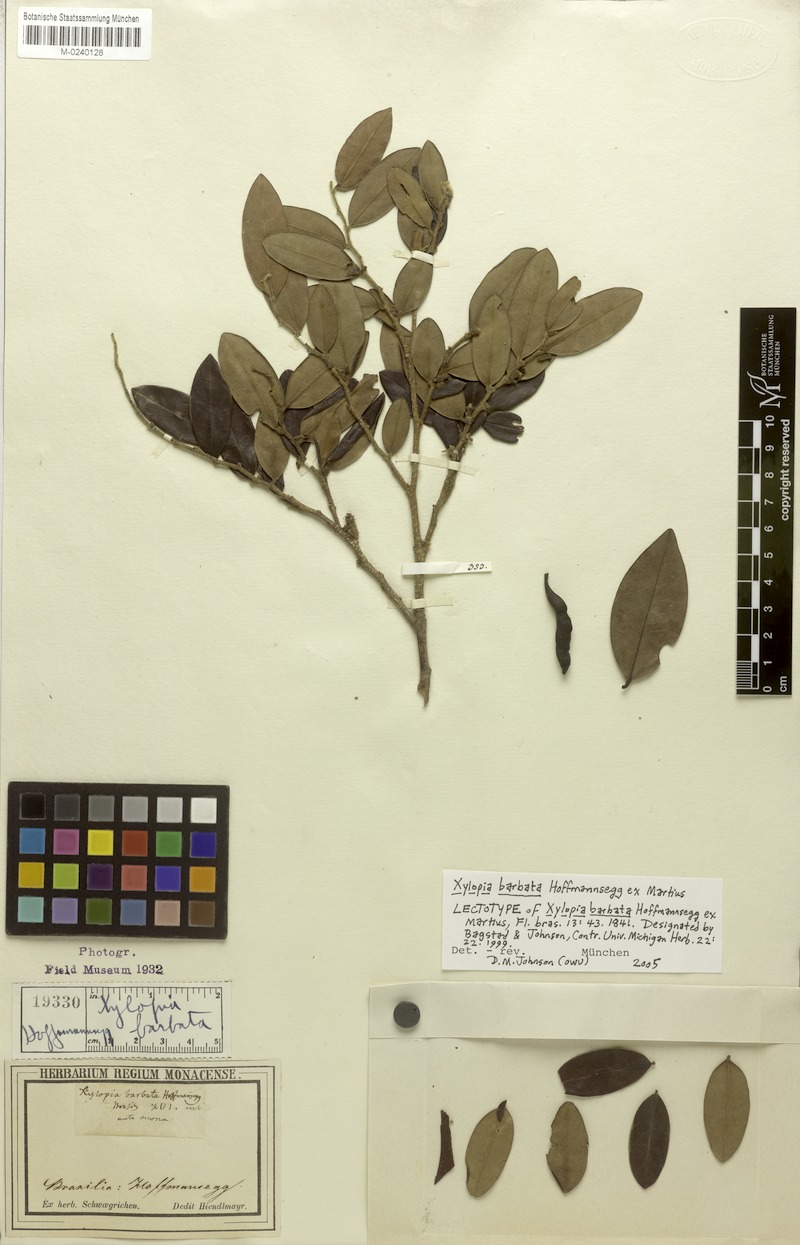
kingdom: Plantae
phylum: Tracheophyta
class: Magnoliopsida
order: Magnoliales
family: Annonaceae
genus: Xylopia
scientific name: Xylopia barbata
